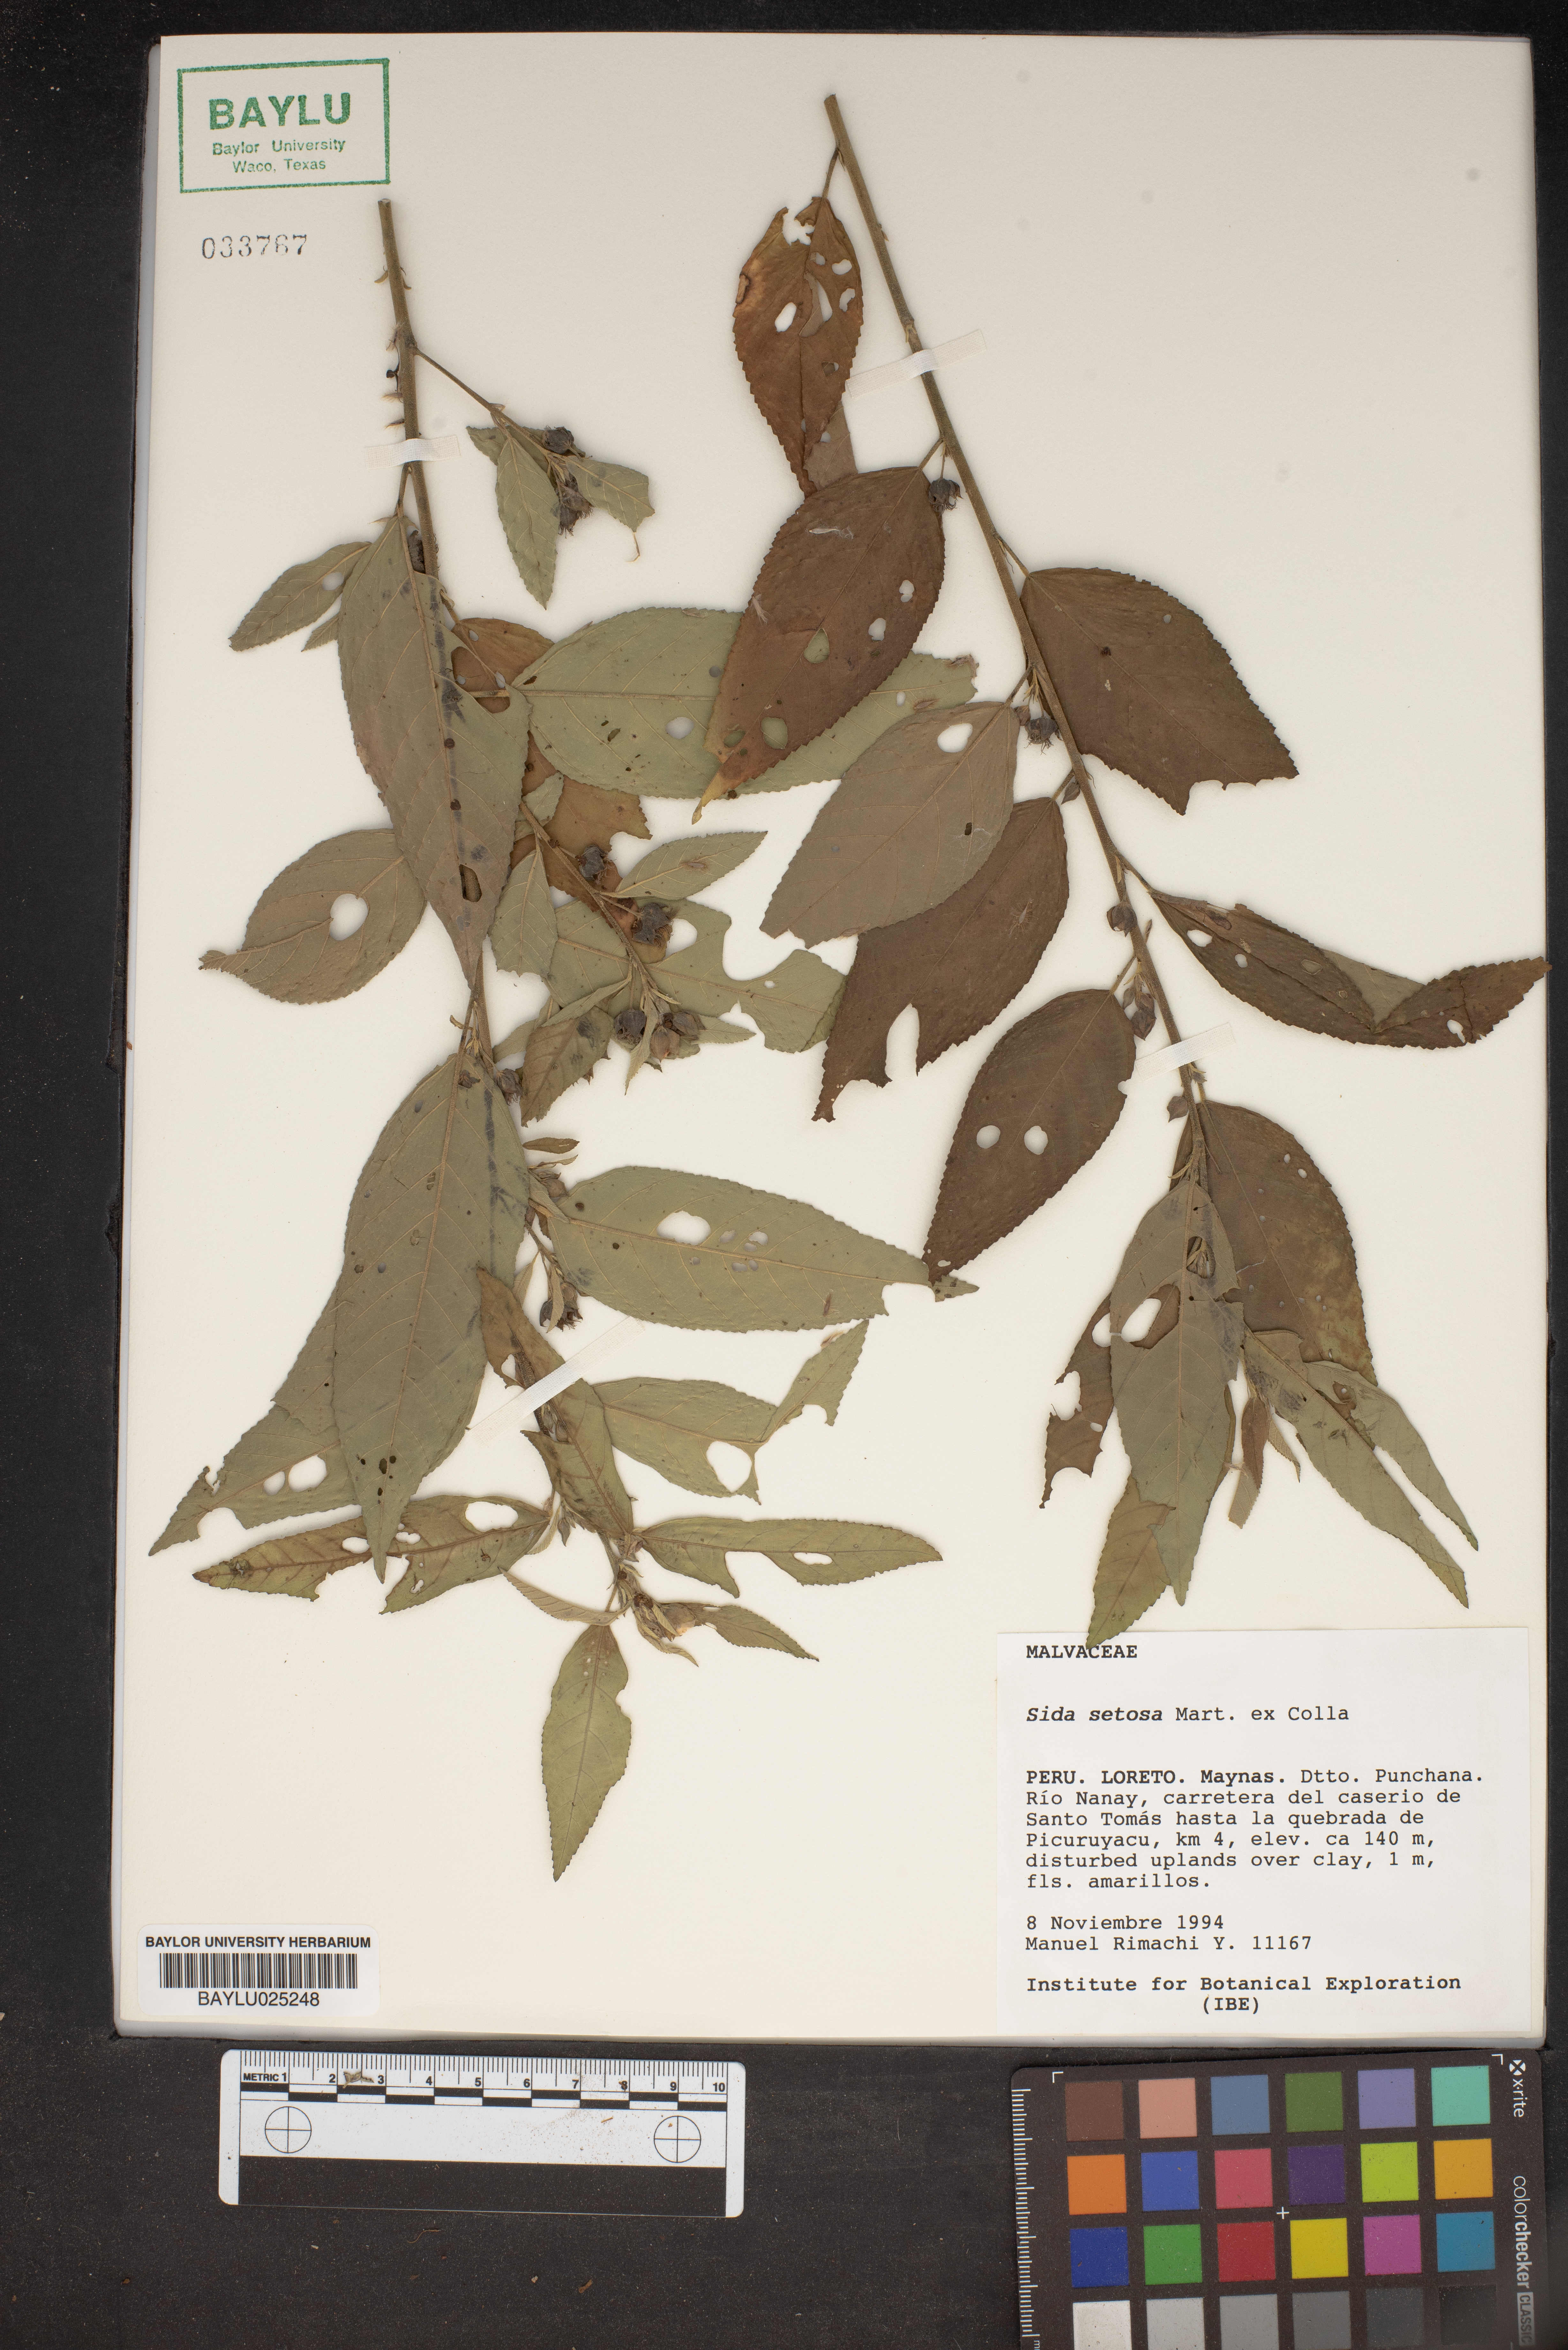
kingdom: Plantae
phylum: Tracheophyta
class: Magnoliopsida
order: Malvales
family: Malvaceae
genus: Sida
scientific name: Sida setosa
